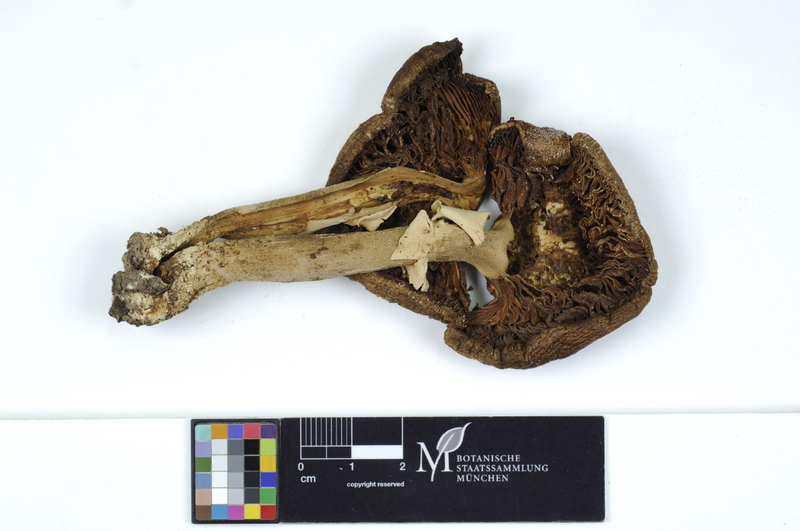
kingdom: Fungi
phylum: Basidiomycota
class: Agaricomycetes
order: Agaricales
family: Amanitaceae
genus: Amanita
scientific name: Amanita excelsa
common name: European false blusher
